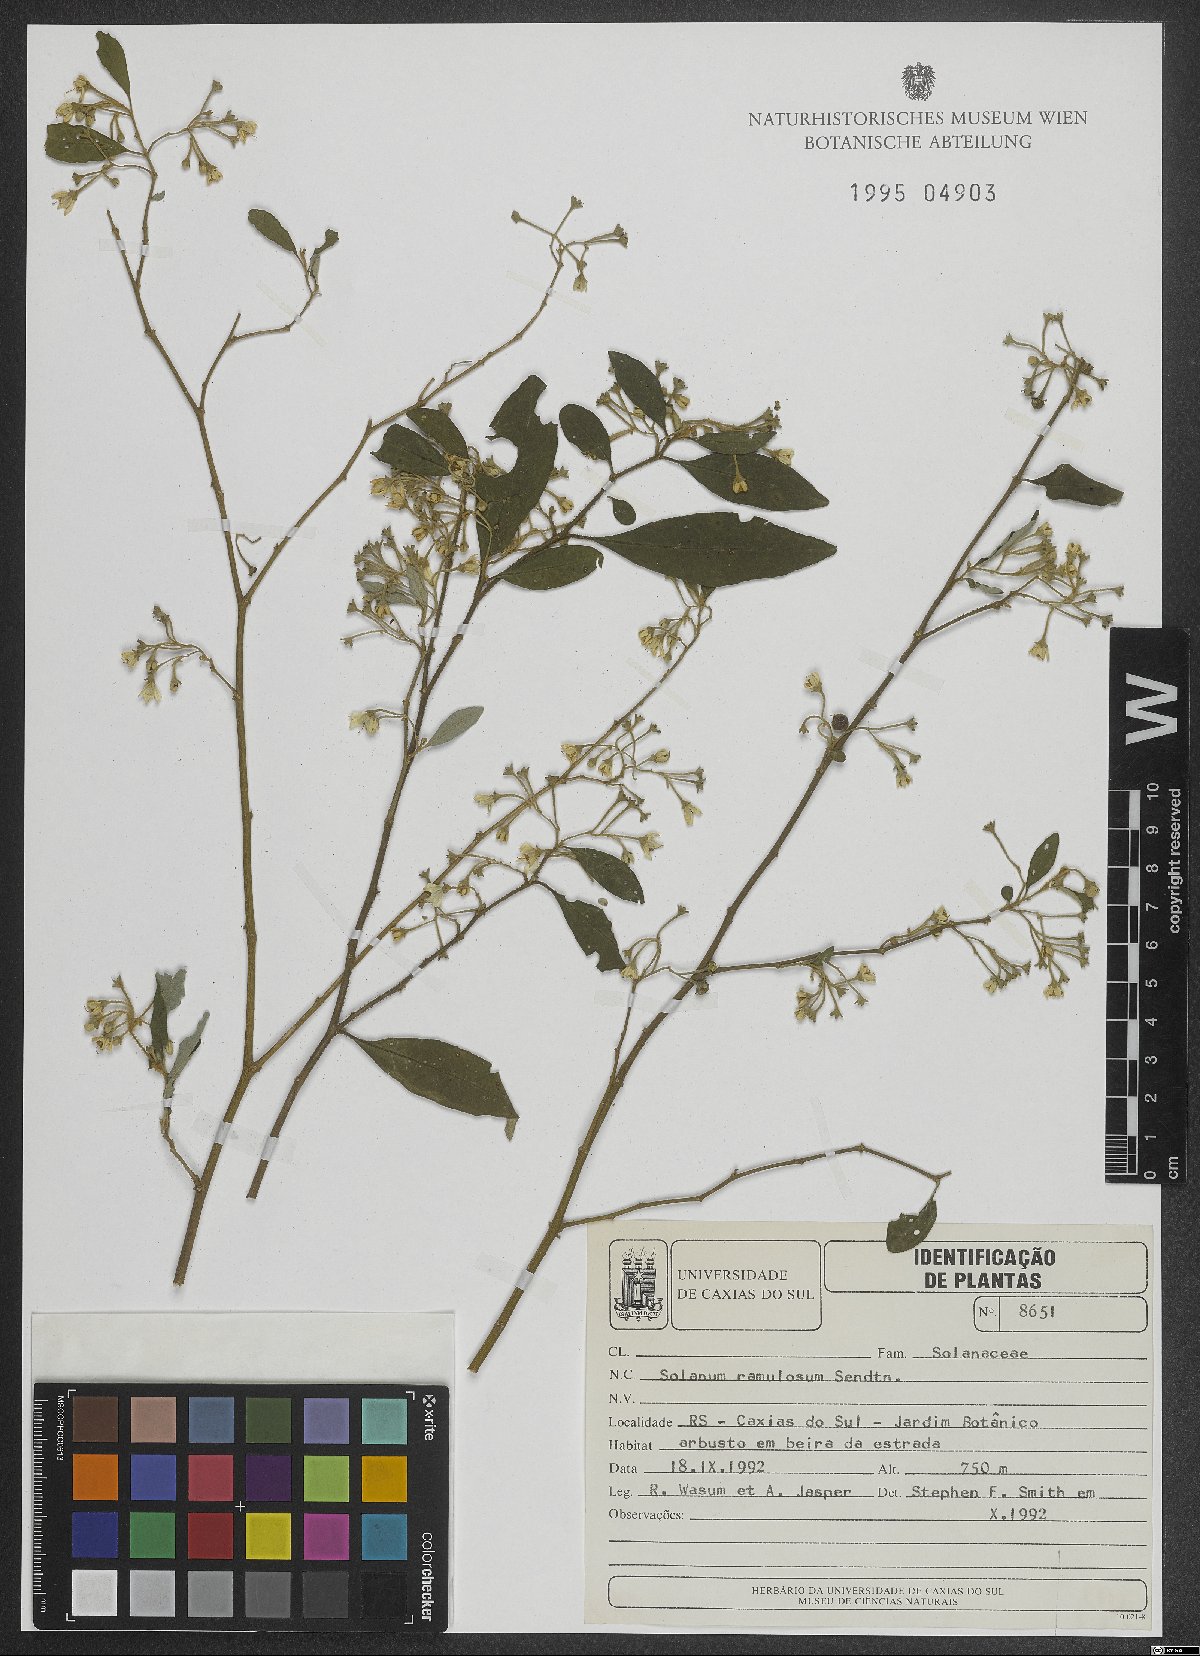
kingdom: Plantae
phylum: Tracheophyta
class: Magnoliopsida
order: Solanales
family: Solanaceae
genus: Solanum
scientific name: Solanum ramulosum
